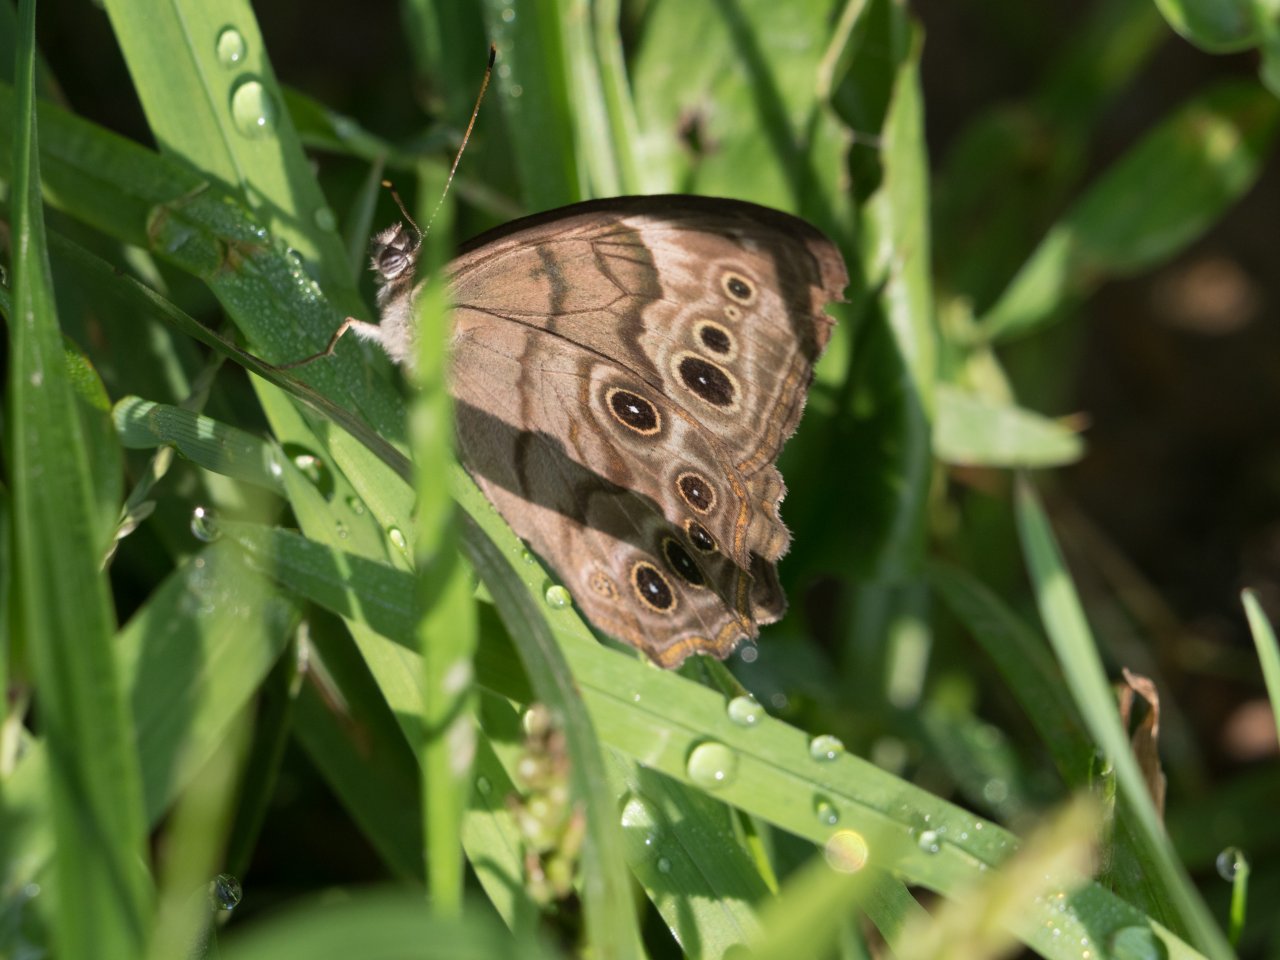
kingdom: Animalia
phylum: Arthropoda
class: Insecta
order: Lepidoptera
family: Nymphalidae
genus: Lethe
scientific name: Lethe anthedon
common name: Northern Pearly-Eye
